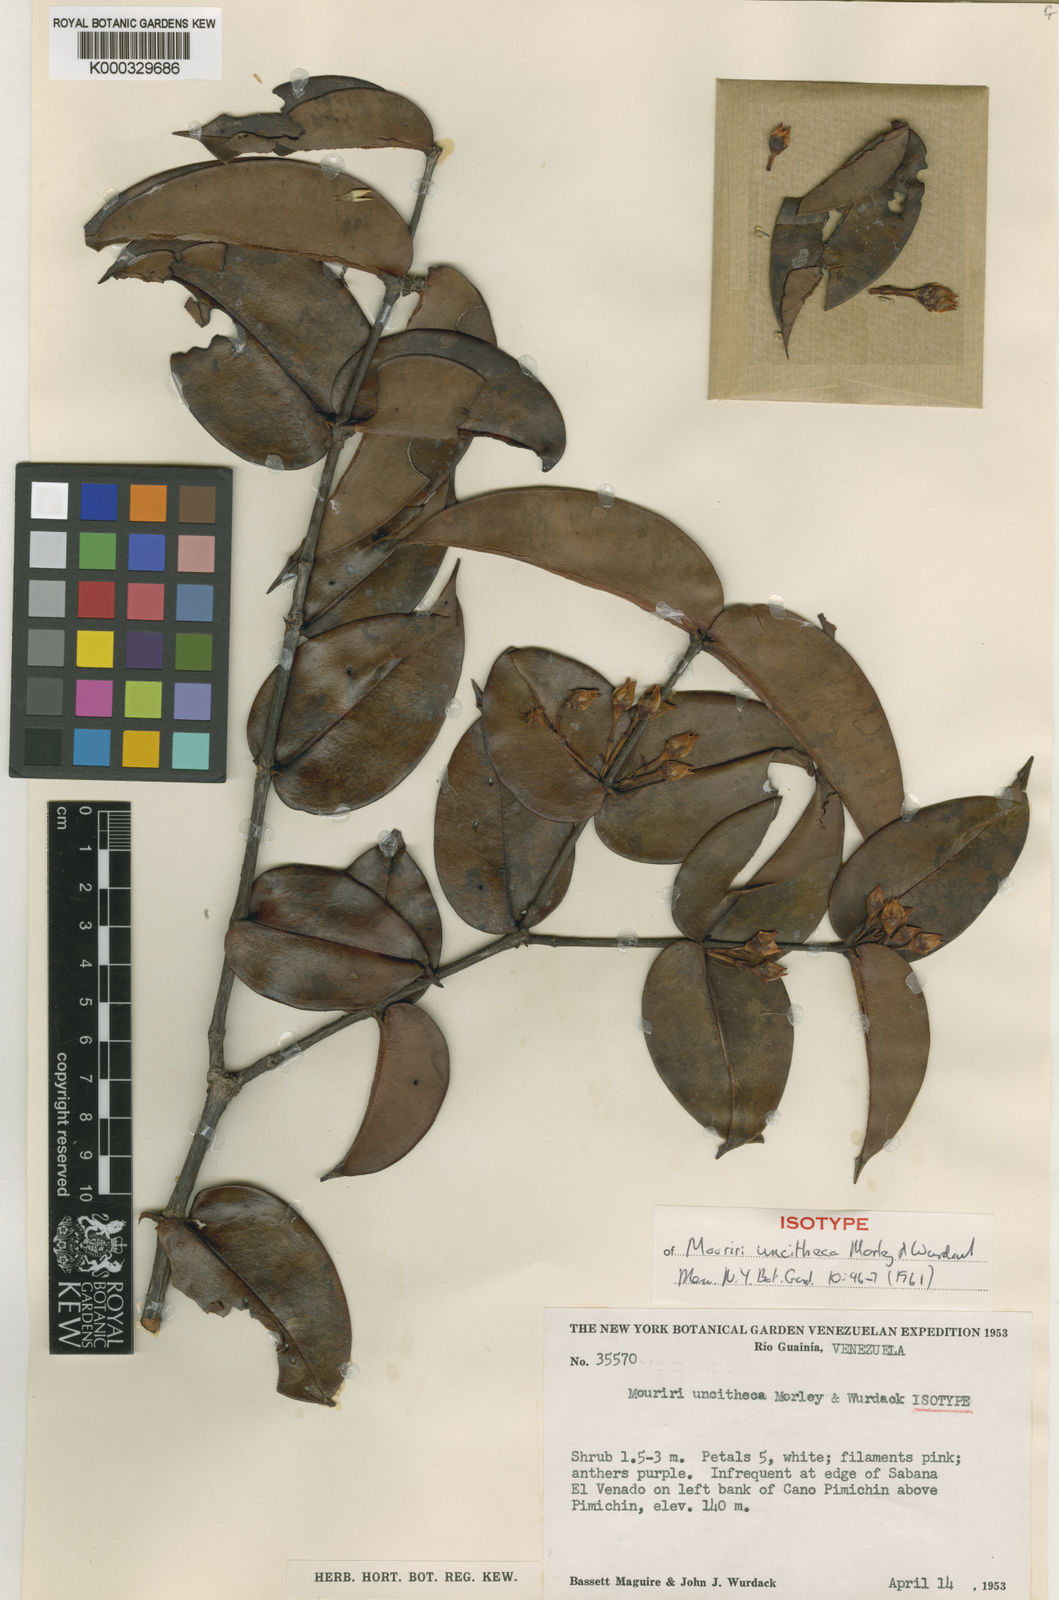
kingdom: Plantae
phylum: Tracheophyta
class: Magnoliopsida
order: Myrtales
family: Melastomataceae
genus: Mouriri
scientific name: Mouriri uncitheca
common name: Derello mouriri
